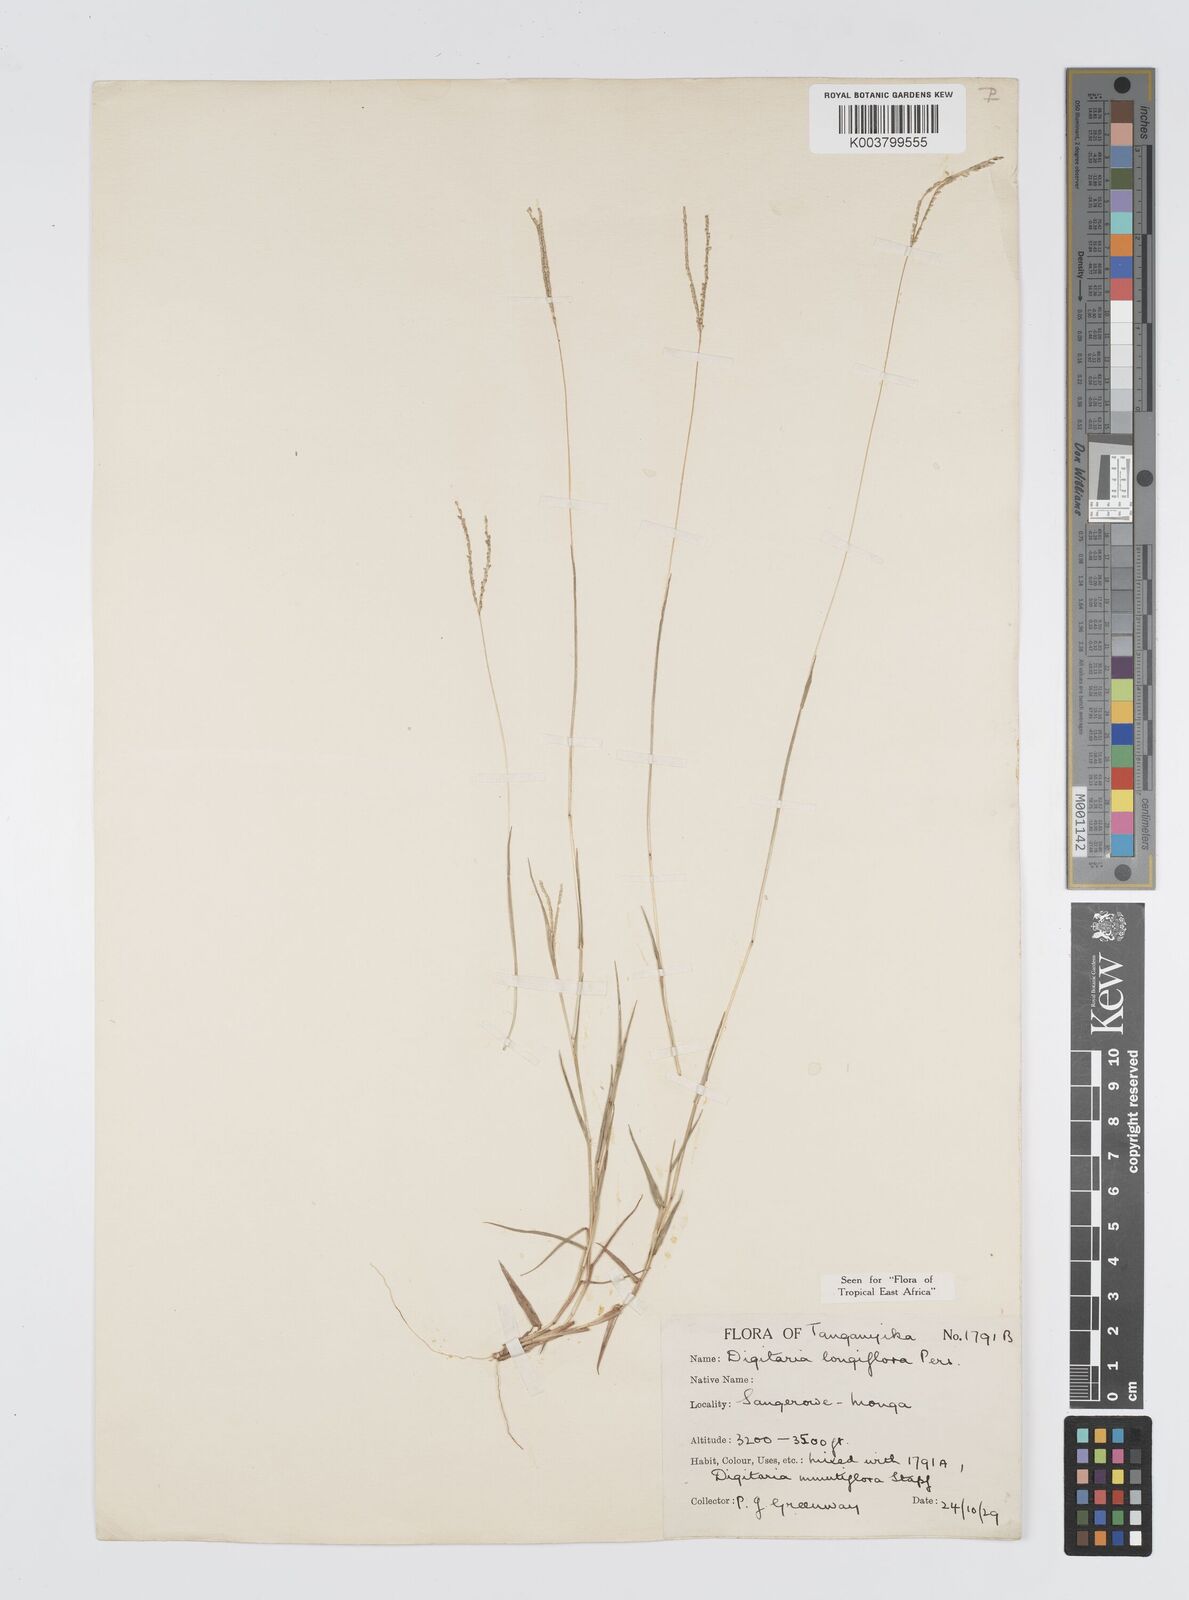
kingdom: Plantae
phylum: Tracheophyta
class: Liliopsida
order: Poales
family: Poaceae
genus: Digitaria
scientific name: Digitaria longiflora
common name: Wire crabgrass
